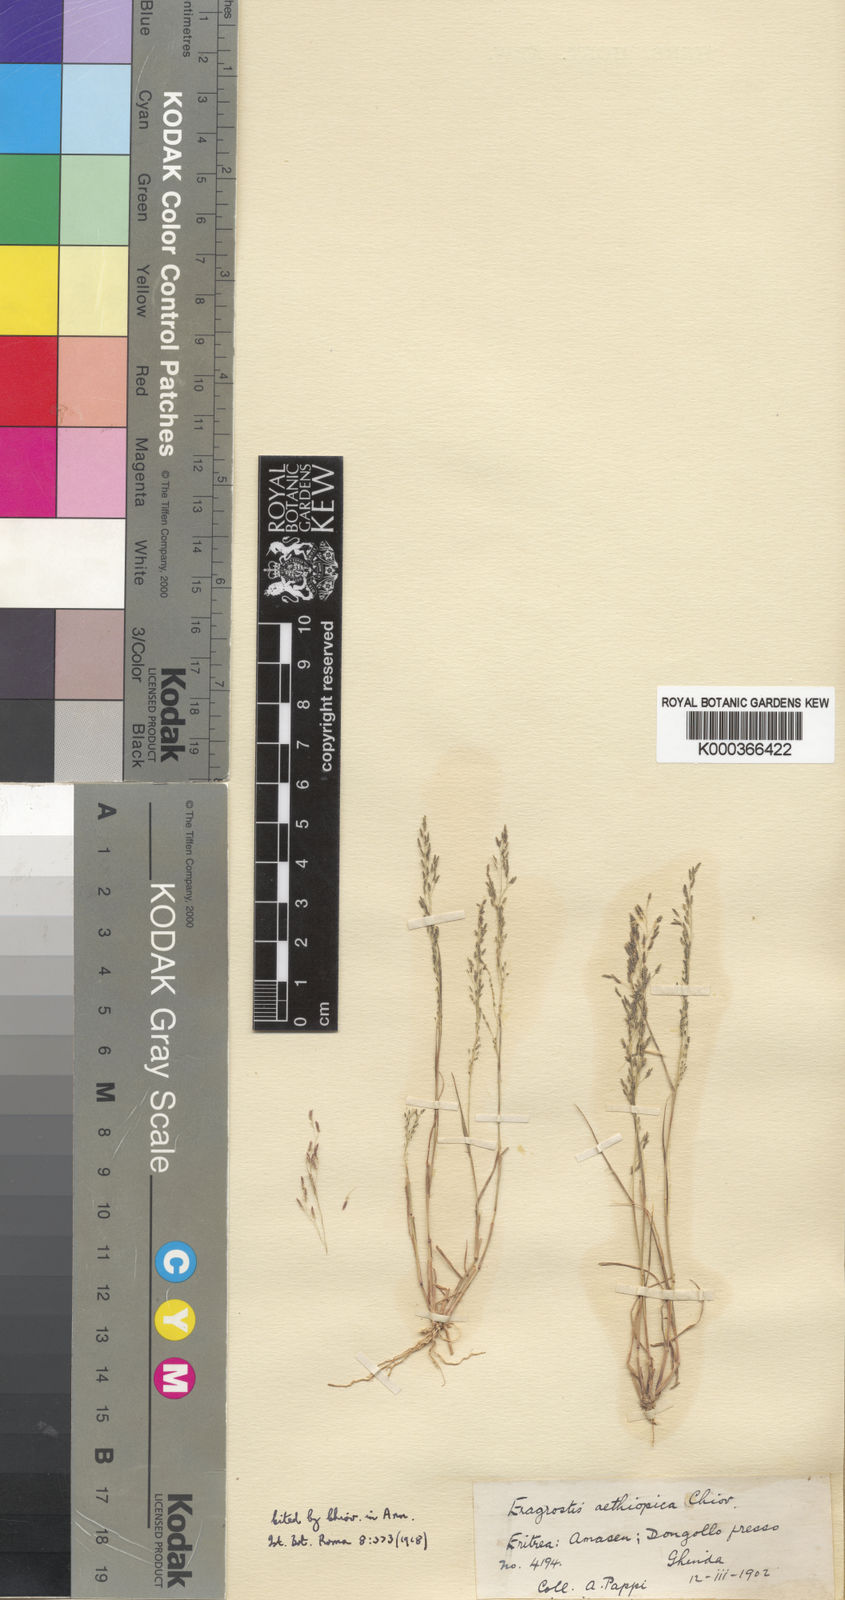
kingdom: Plantae
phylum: Tracheophyta
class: Liliopsida
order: Poales
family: Poaceae
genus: Eragrostis
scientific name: Eragrostis aethiopica
